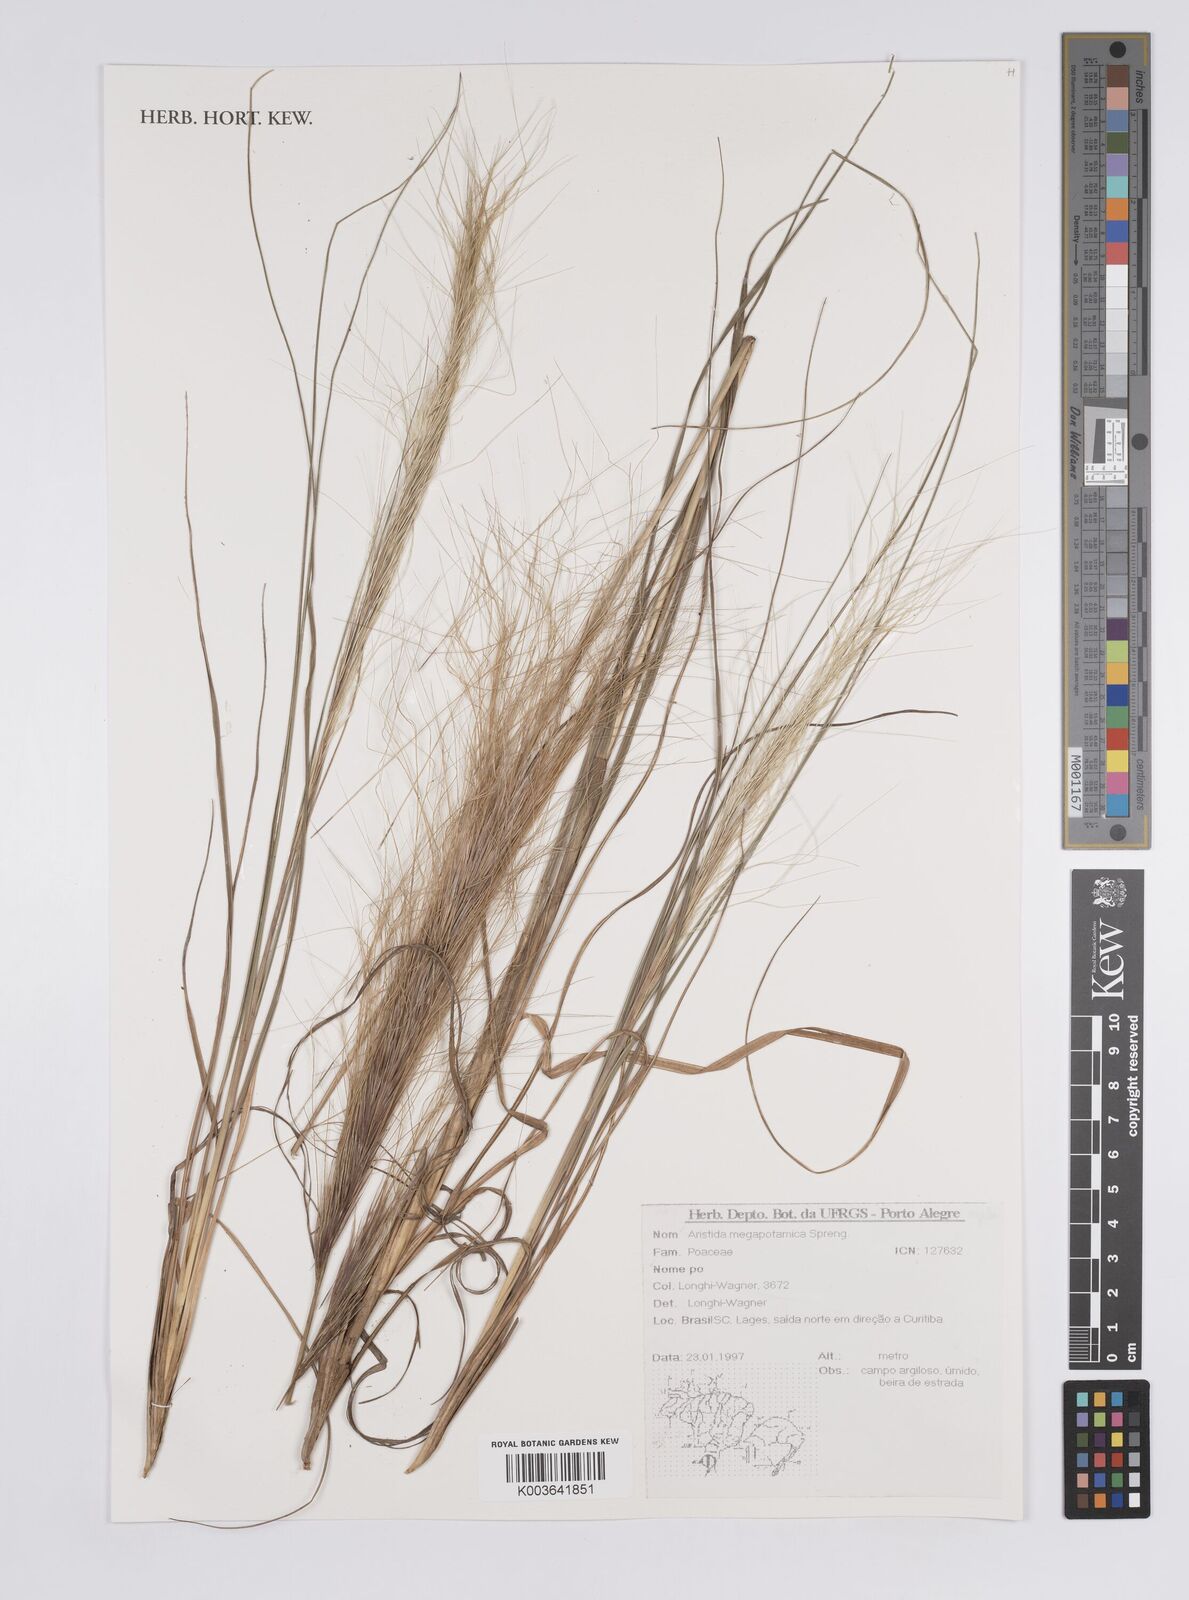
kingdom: Plantae
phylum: Tracheophyta
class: Liliopsida
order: Poales
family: Poaceae
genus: Aristida
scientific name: Aristida megapotamica
